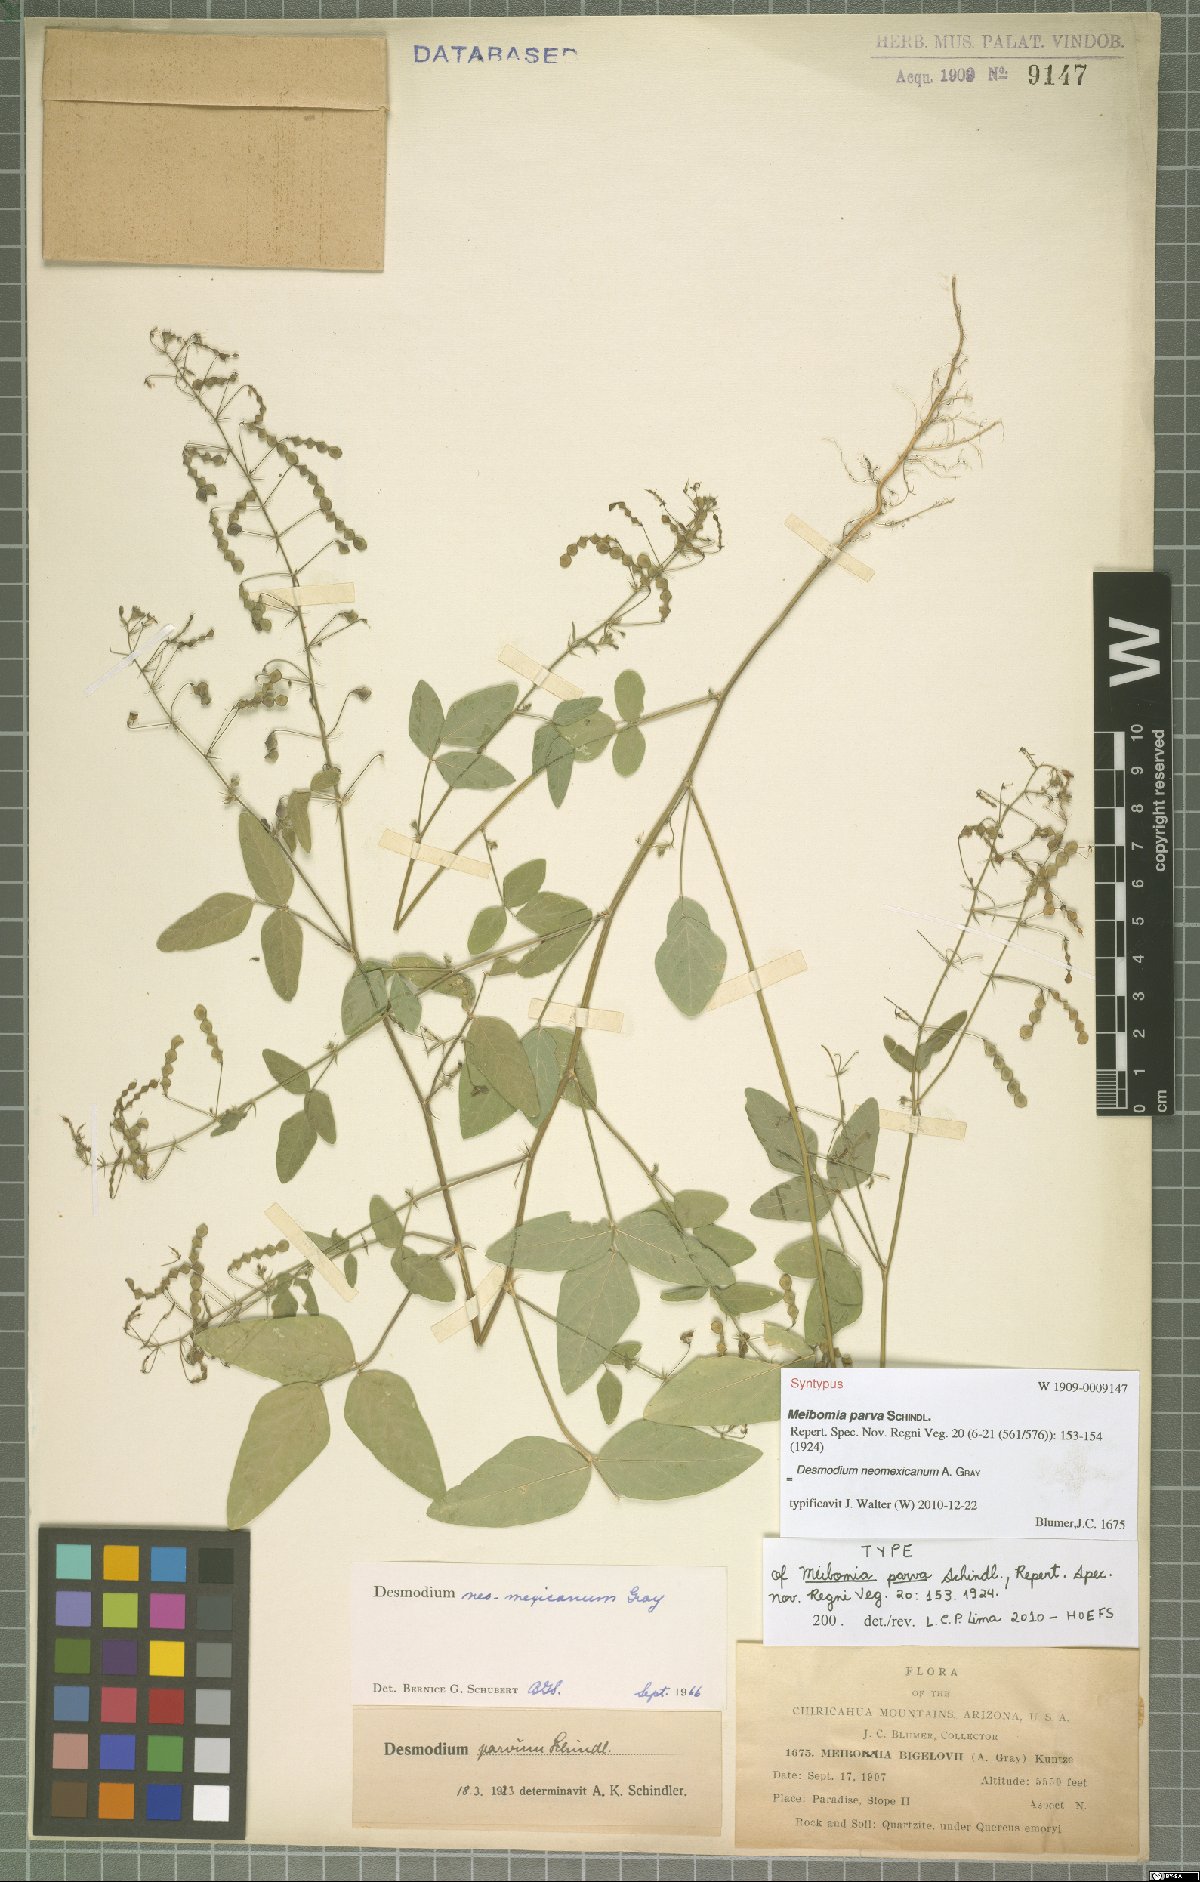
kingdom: Plantae
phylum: Tracheophyta
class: Magnoliopsida
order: Fabales
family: Fabaceae
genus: Desmodium
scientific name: Desmodium procumbens
